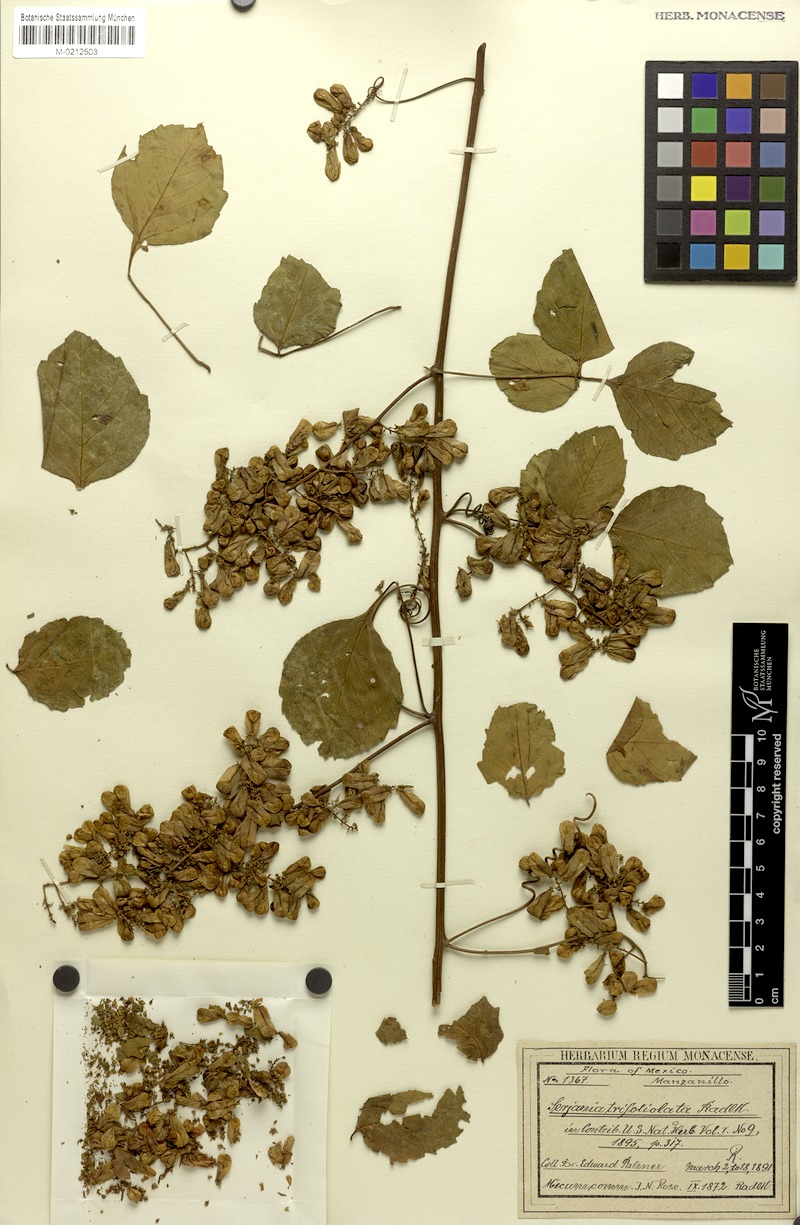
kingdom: Plantae
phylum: Tracheophyta
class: Magnoliopsida
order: Sapindales
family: Sapindaceae
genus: Serjania
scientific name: Serjania trifoliolata
